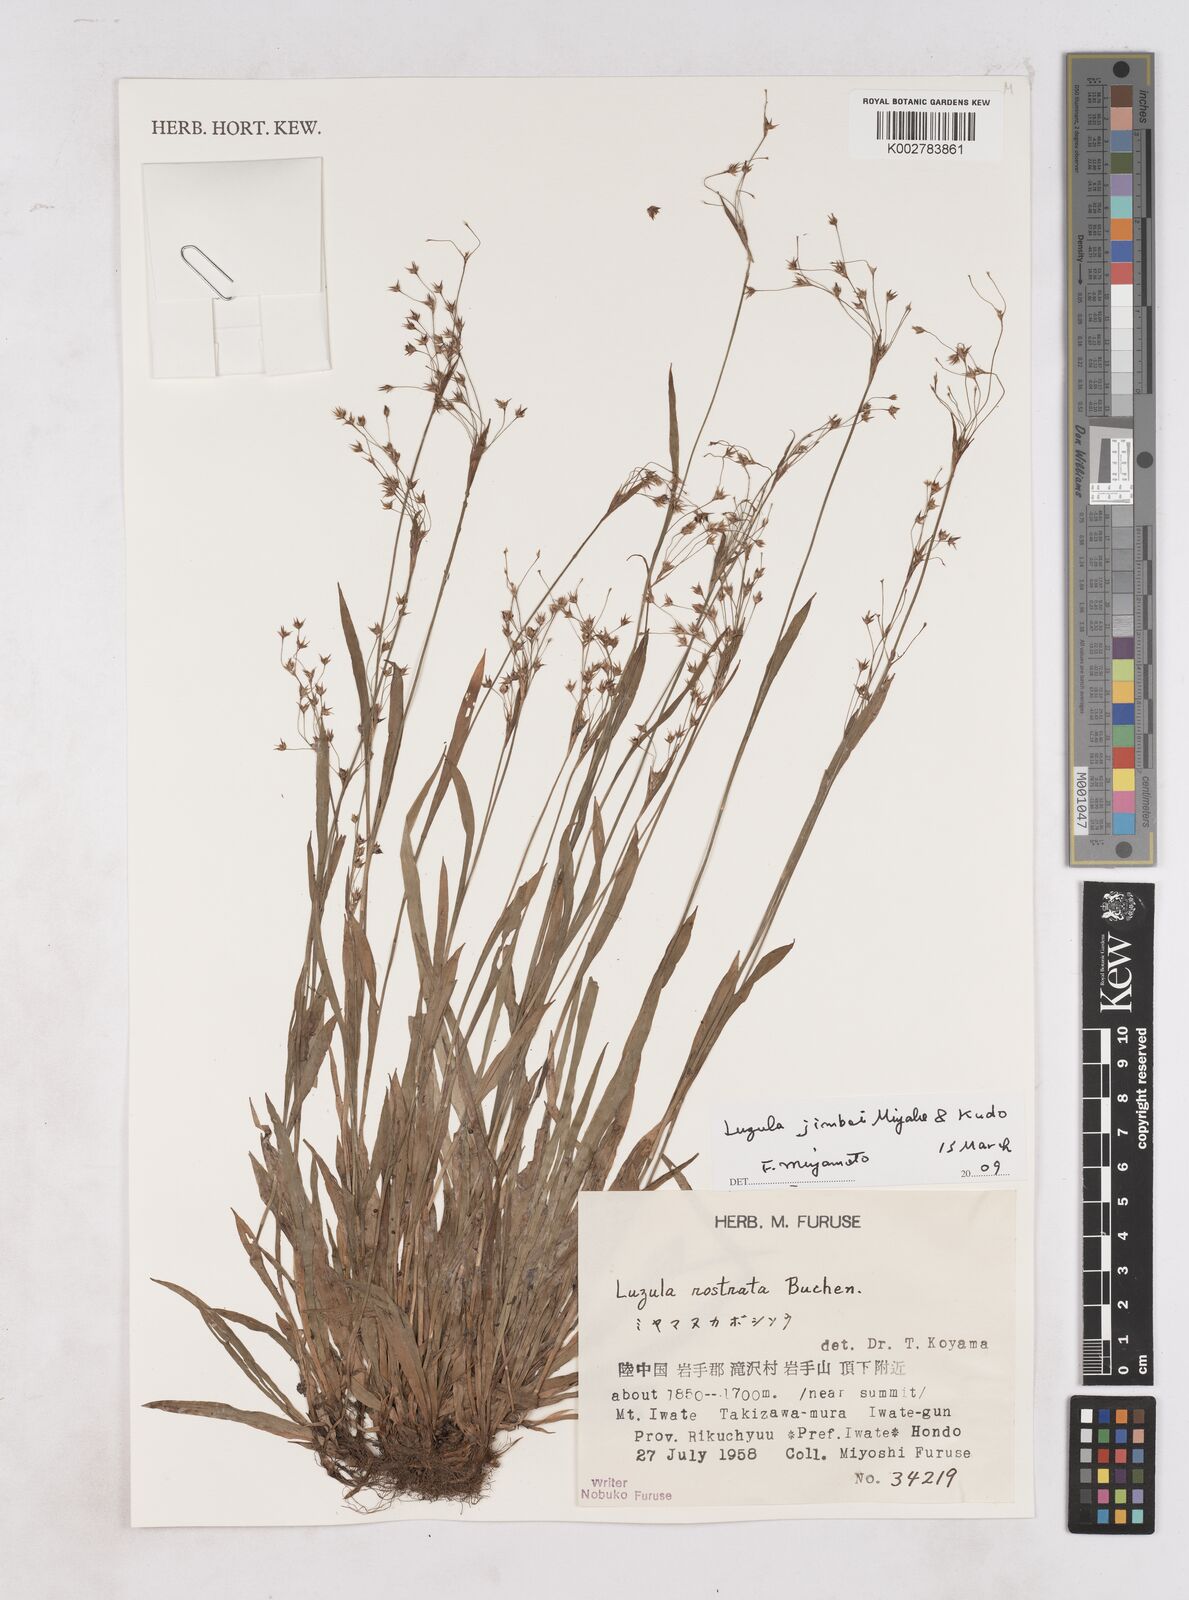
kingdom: Plantae
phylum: Tracheophyta
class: Liliopsida
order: Poales
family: Juncaceae
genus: Luzula
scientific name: Luzula plumosa
